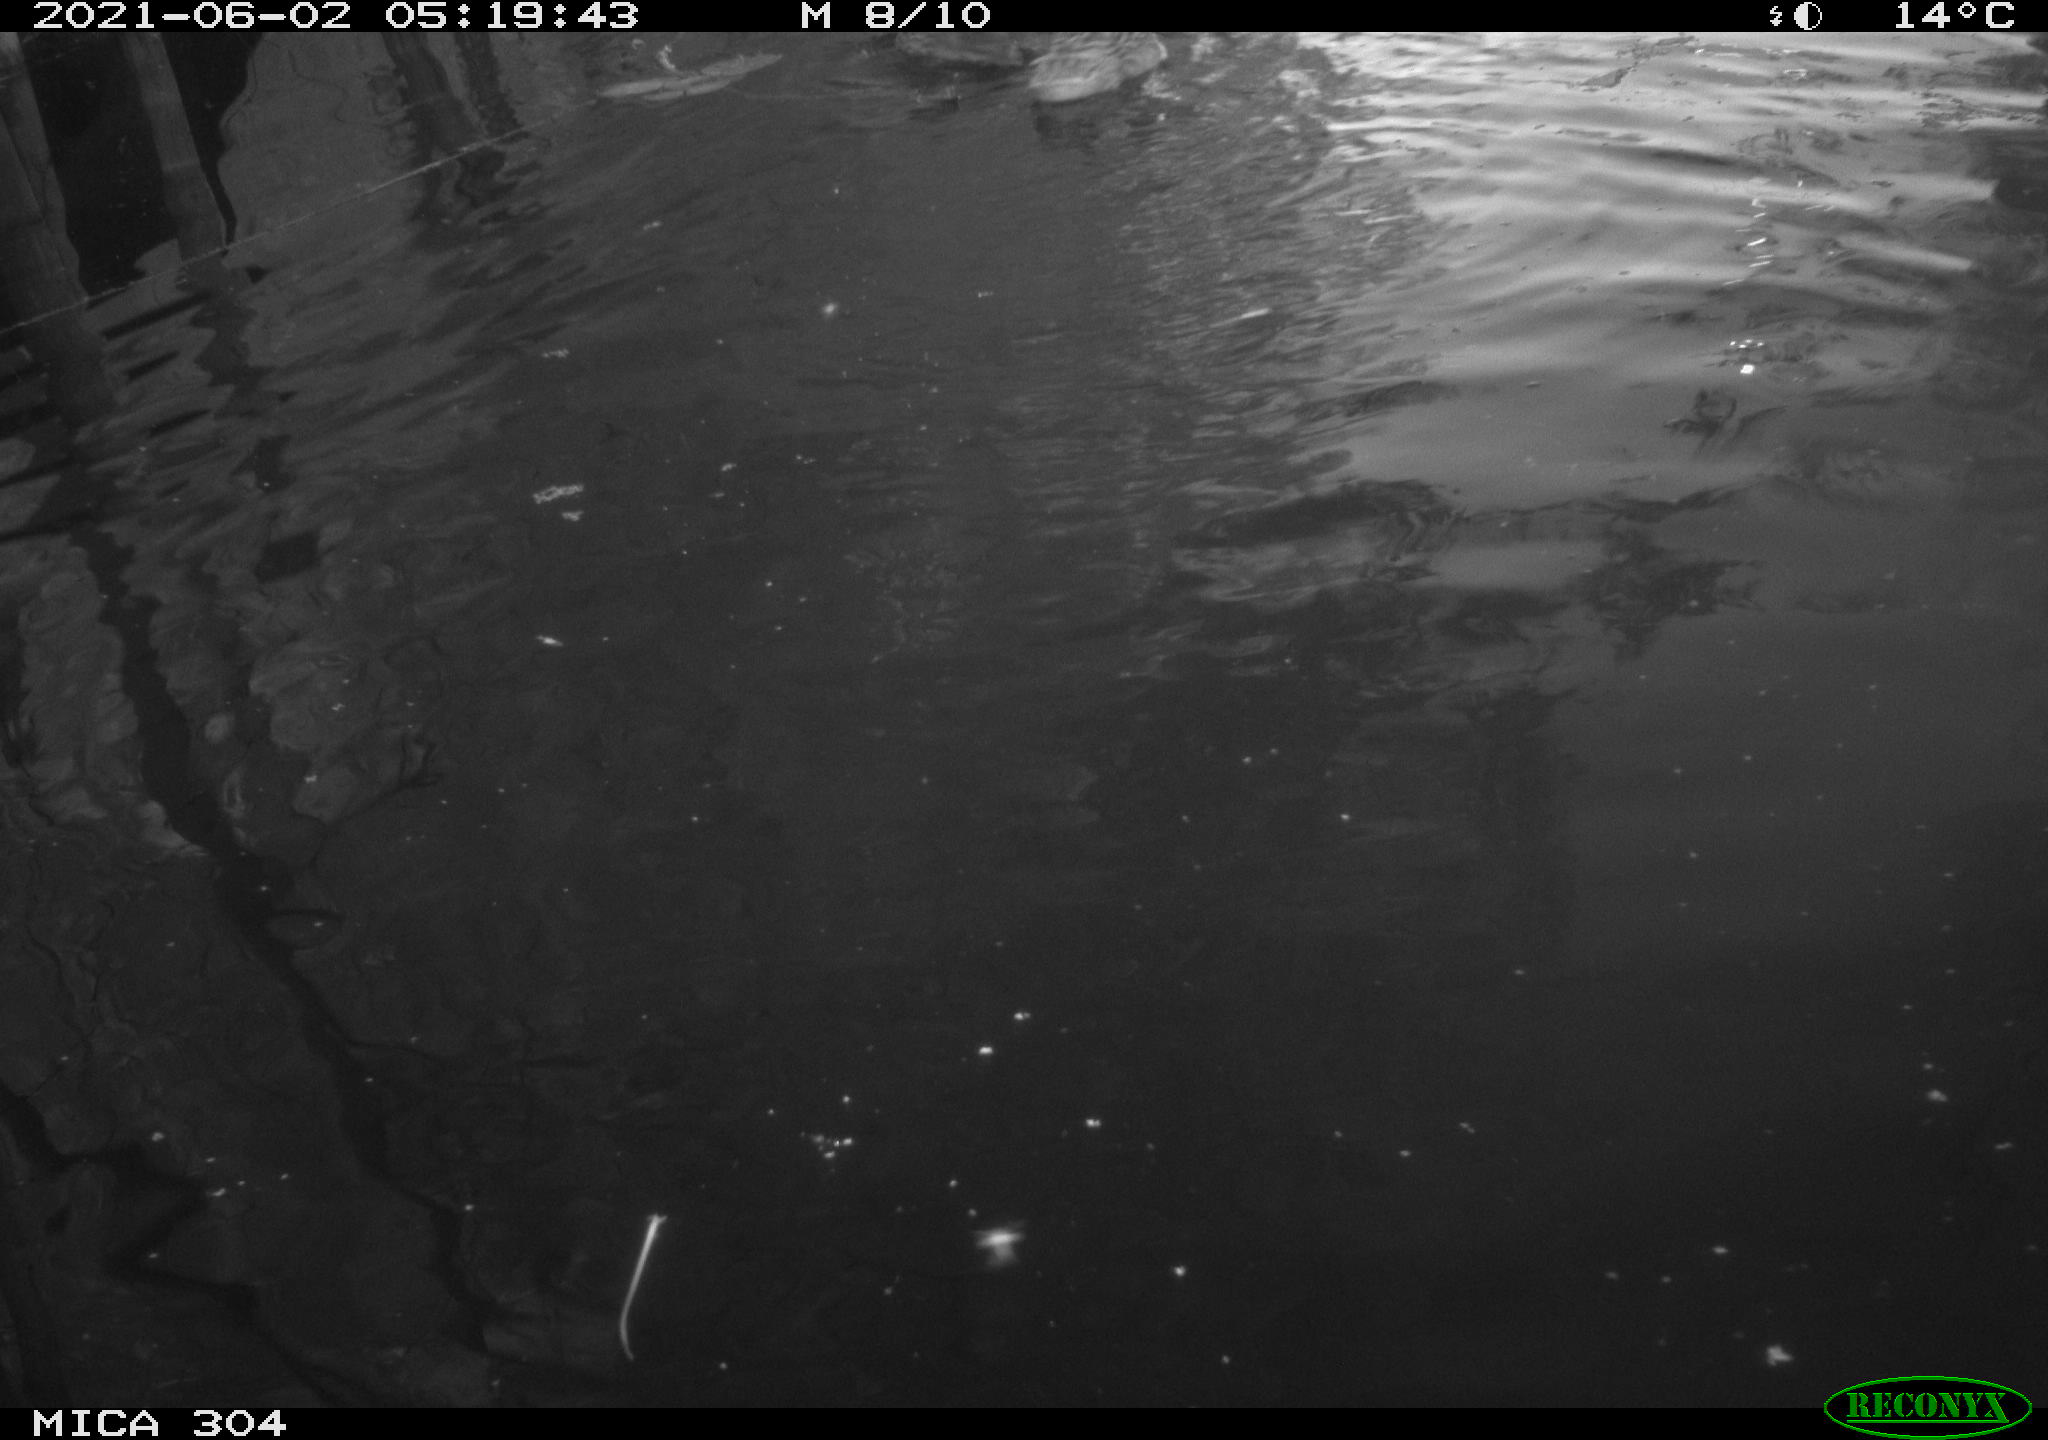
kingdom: Animalia
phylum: Chordata
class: Aves
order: Anseriformes
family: Anatidae
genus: Mareca
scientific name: Mareca strepera
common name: Gadwall
